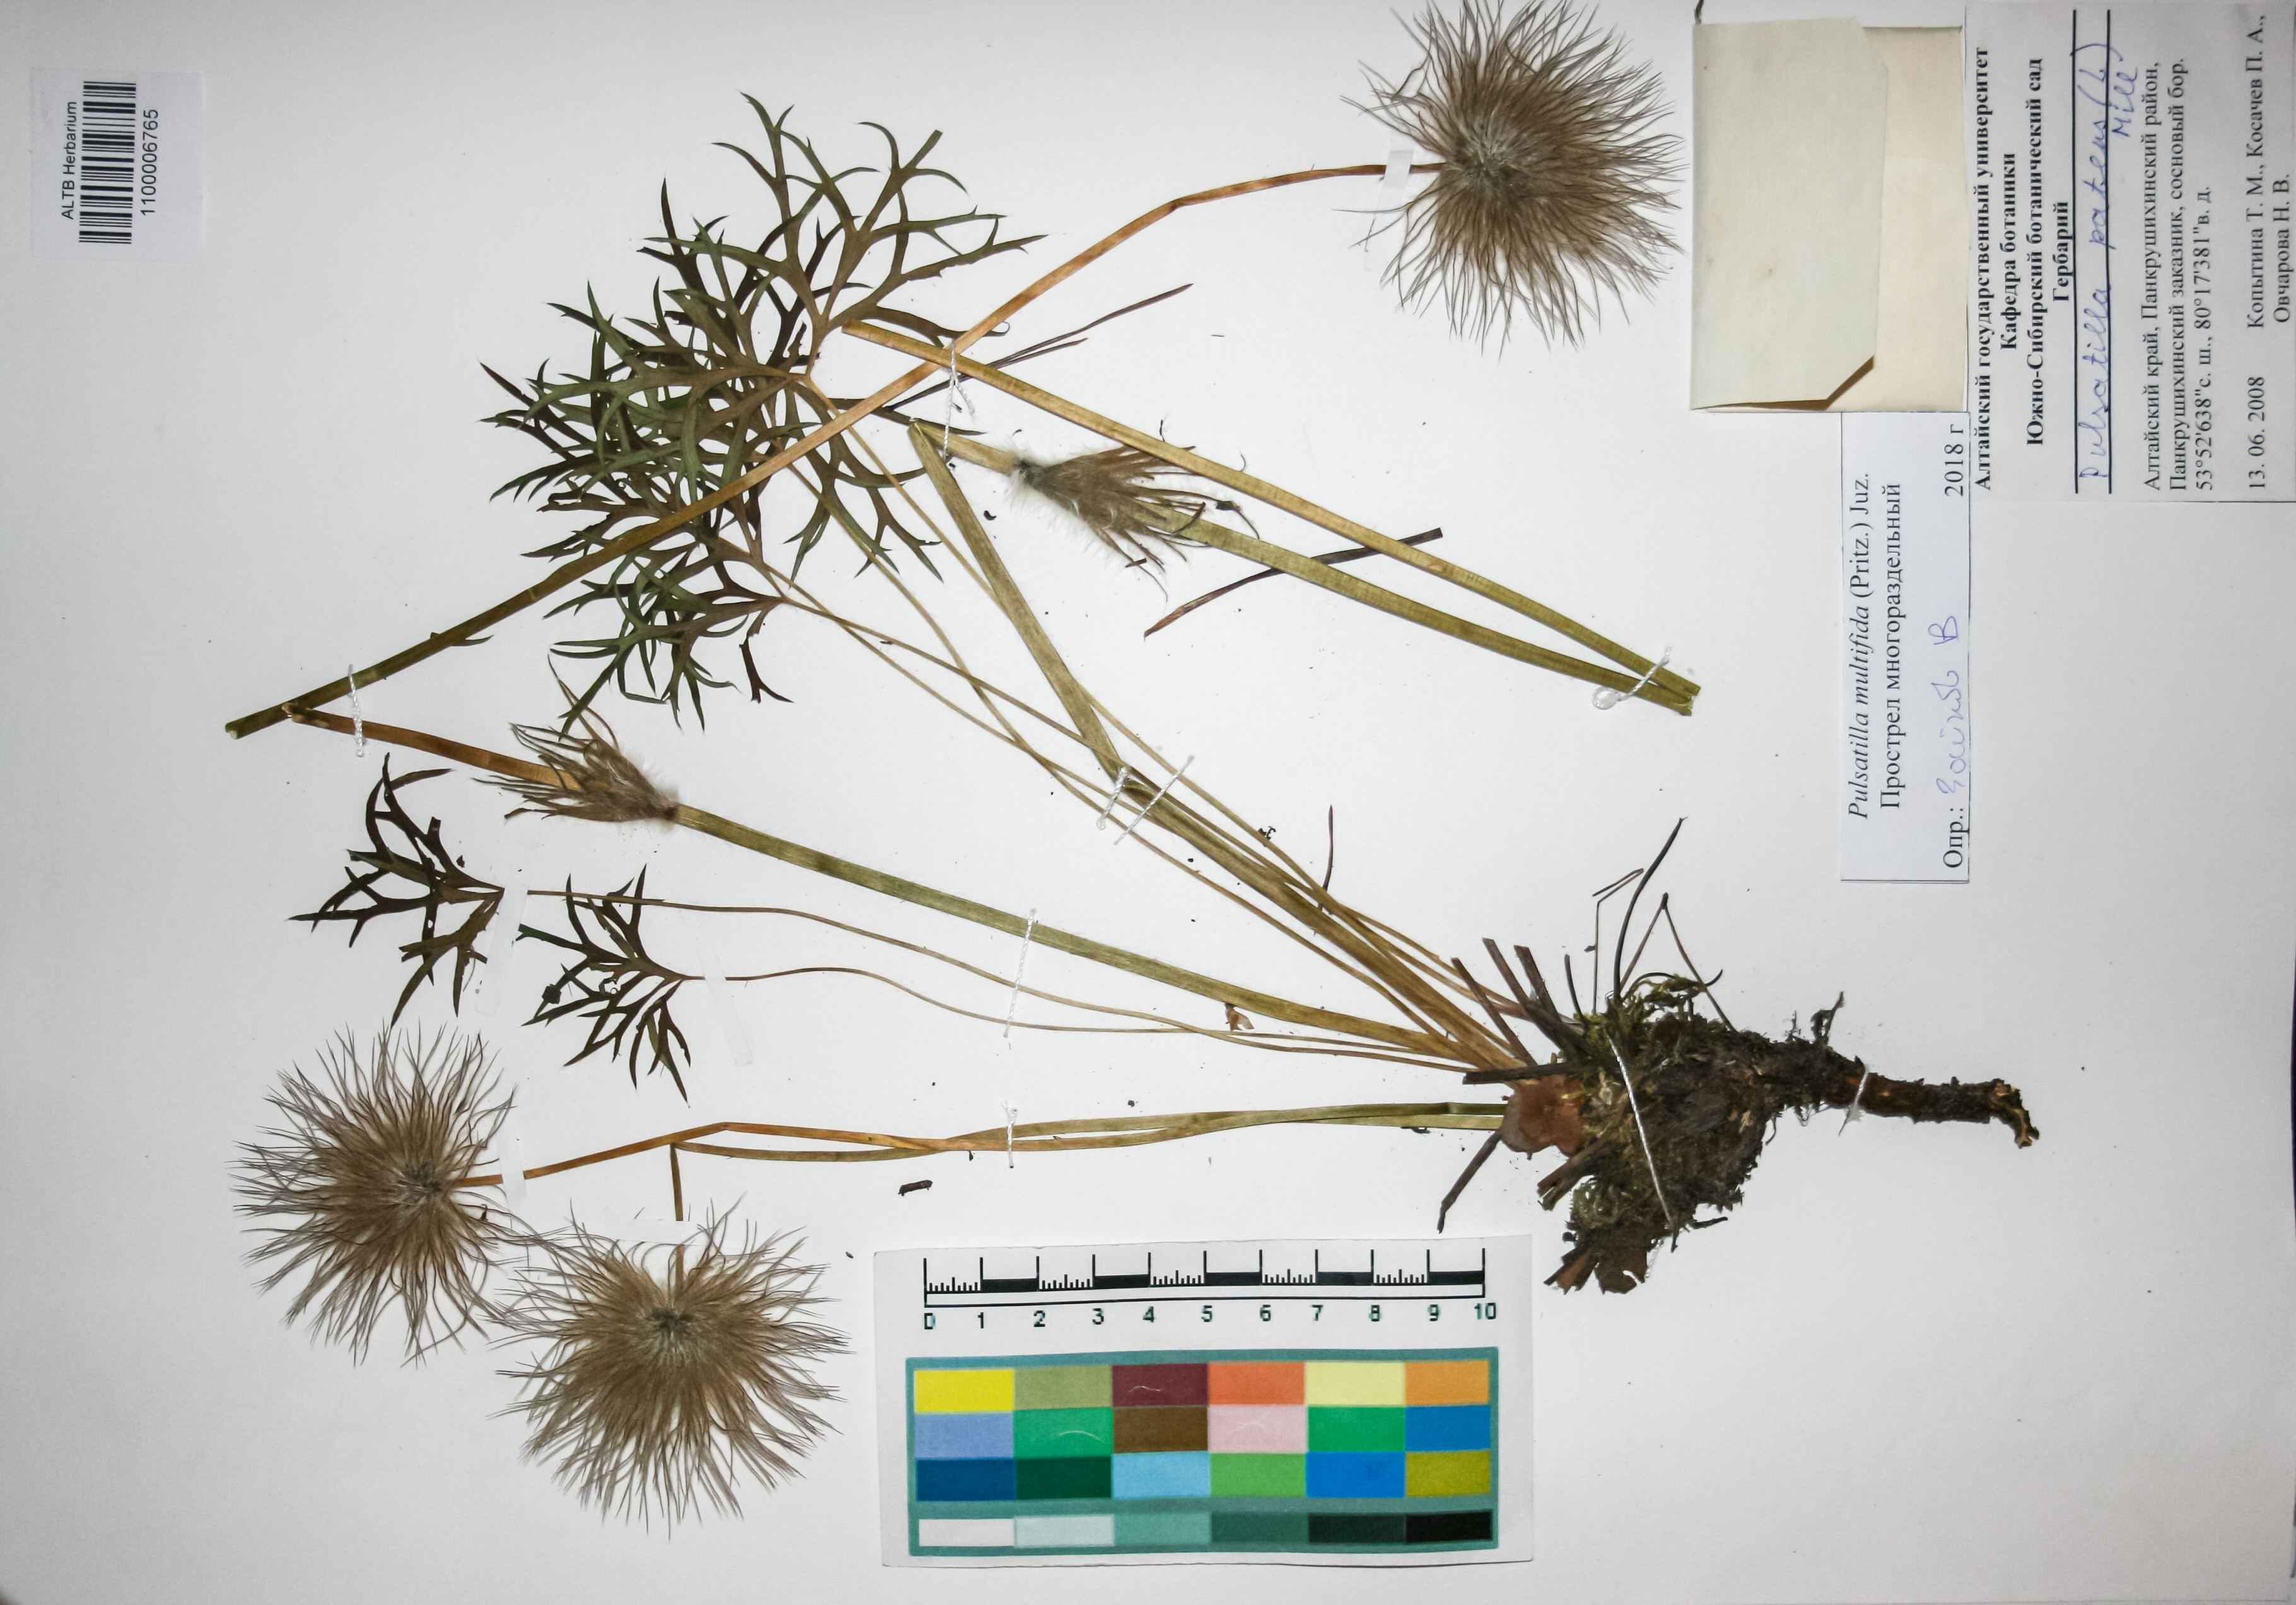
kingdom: Plantae
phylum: Tracheophyta
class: Magnoliopsida
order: Ranunculales
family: Ranunculaceae
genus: Pulsatilla
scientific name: Pulsatilla patens
